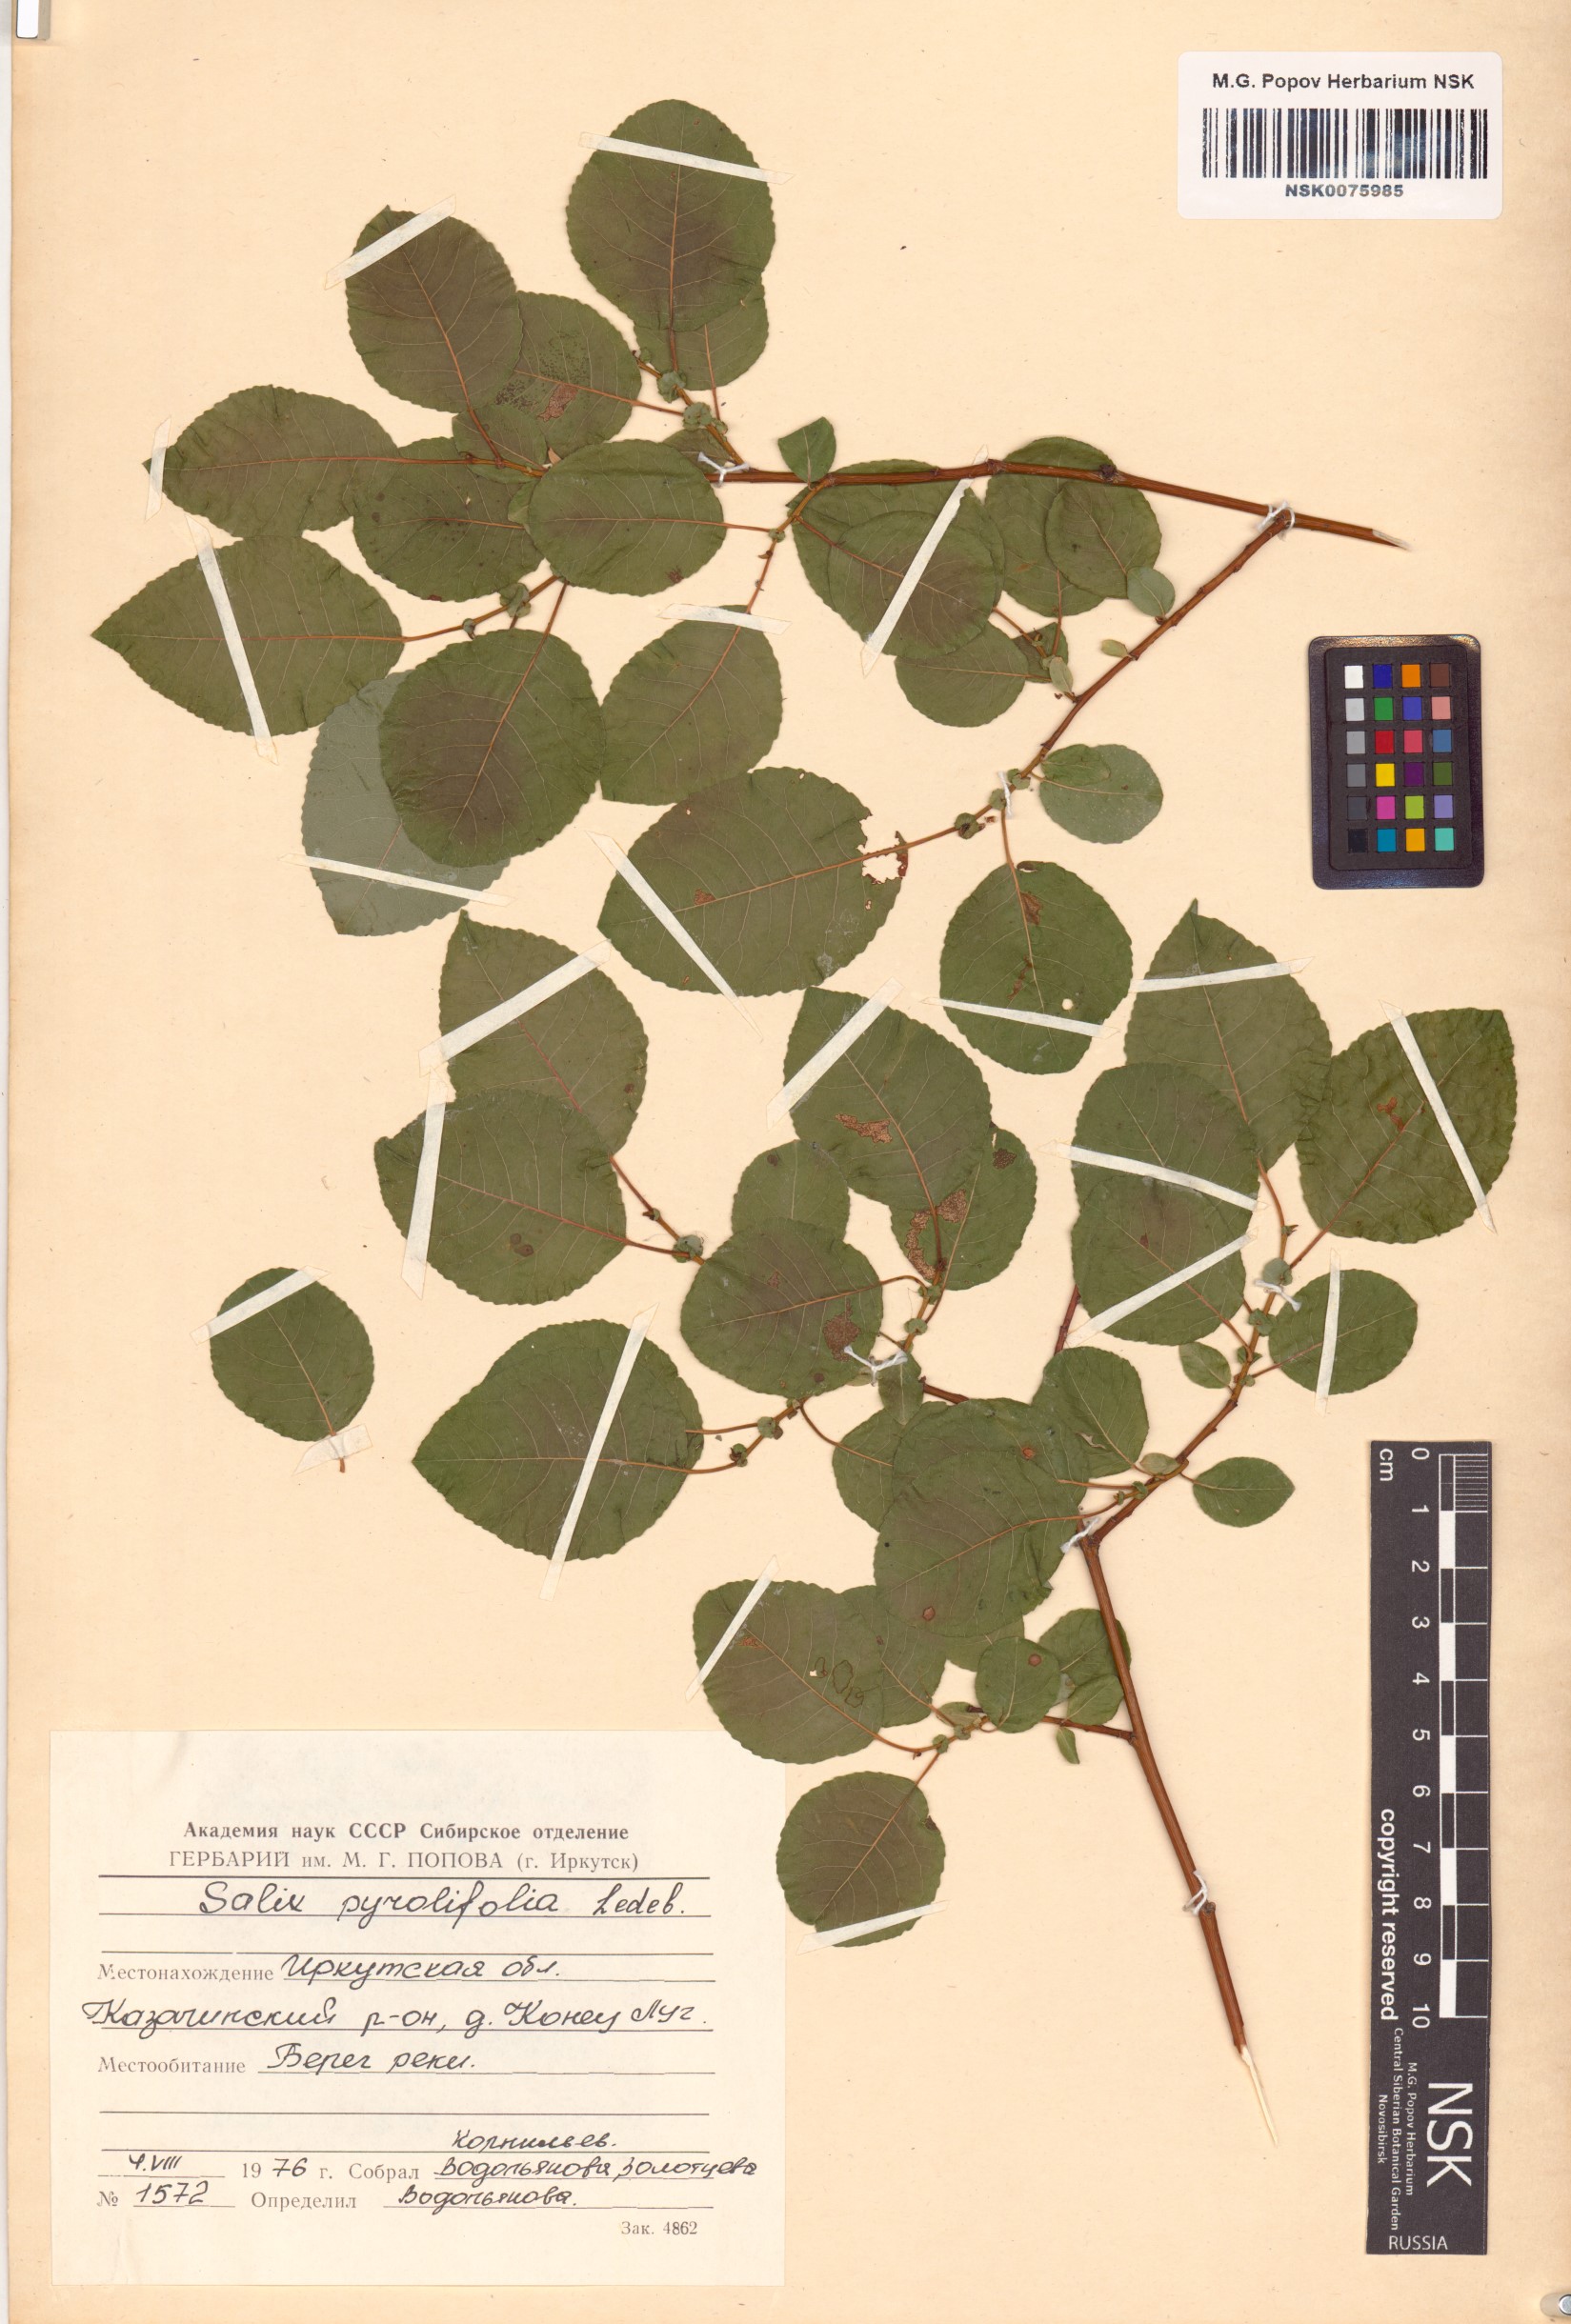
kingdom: Plantae
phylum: Tracheophyta
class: Magnoliopsida
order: Malpighiales
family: Salicaceae
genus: Salix
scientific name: Salix pyrolifolia
